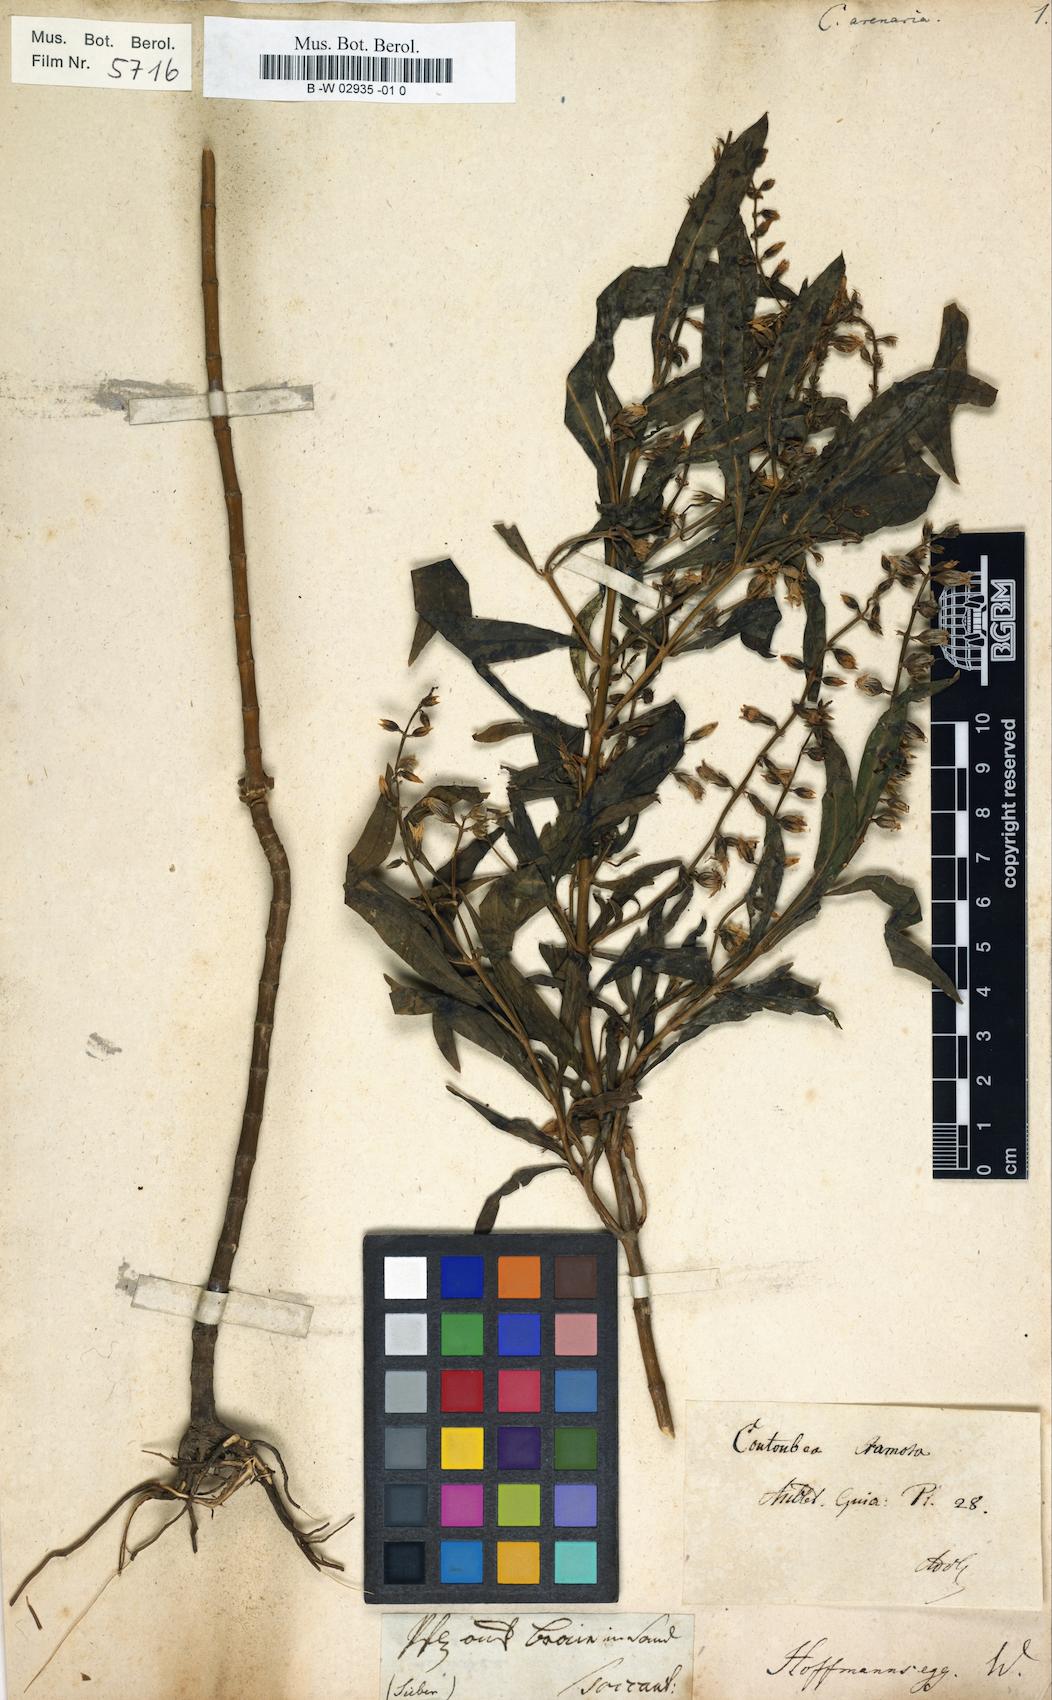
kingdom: Plantae
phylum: Tracheophyta
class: Magnoliopsida
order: Gentianales
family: Gentianaceae
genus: Cutubea
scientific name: Cutubea
